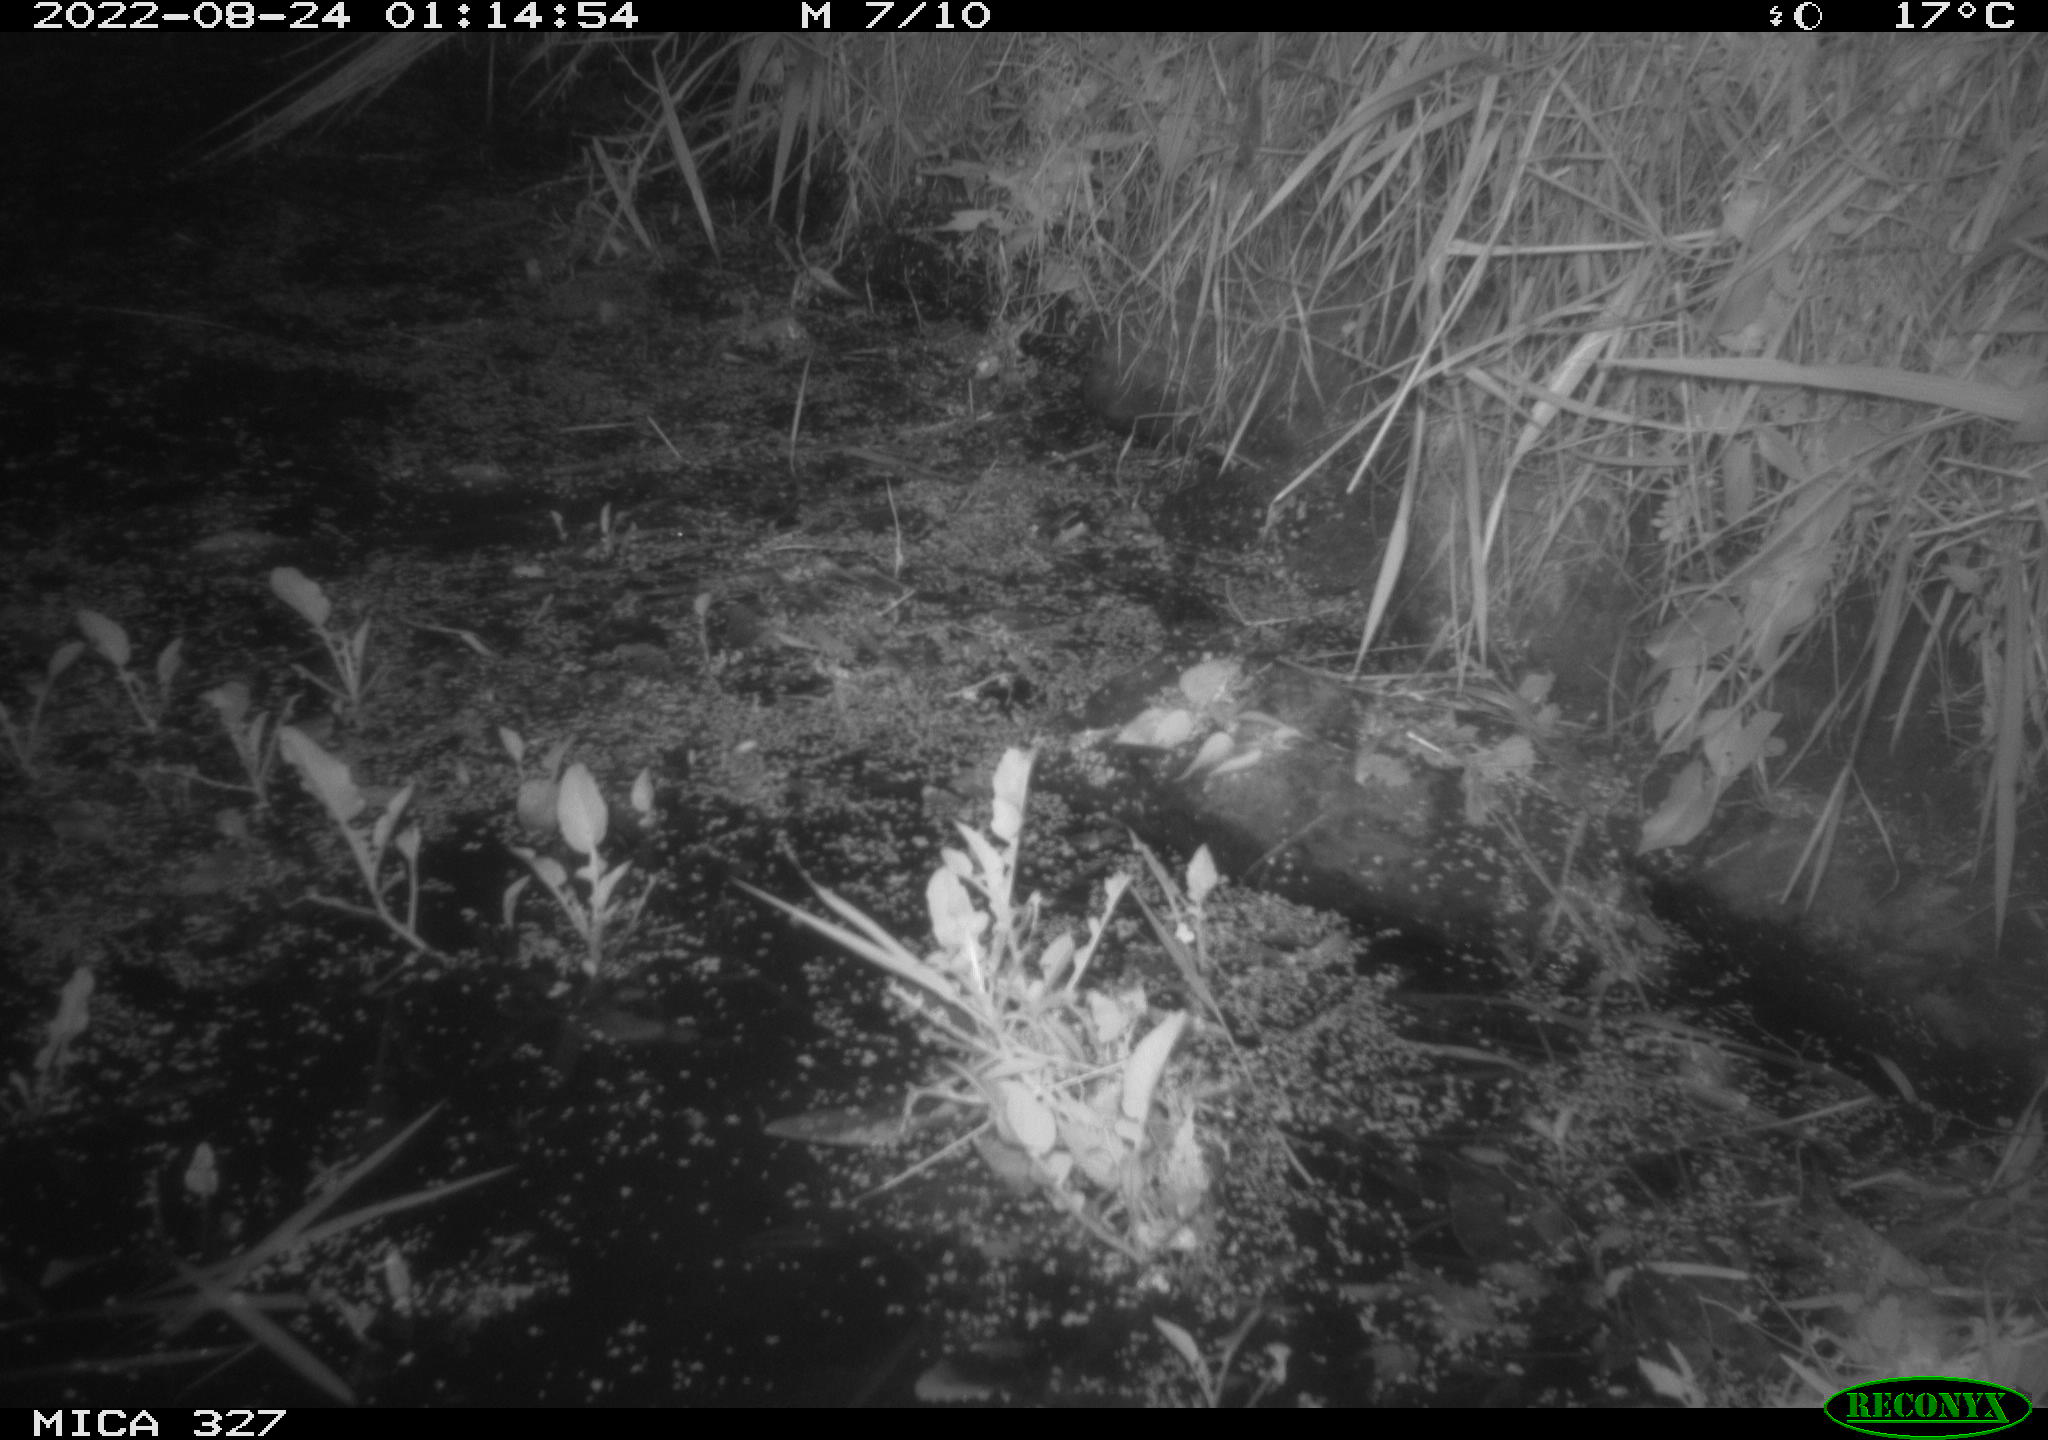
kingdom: Animalia
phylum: Chordata
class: Mammalia
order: Rodentia
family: Muridae
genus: Rattus
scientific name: Rattus norvegicus
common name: Brown rat
